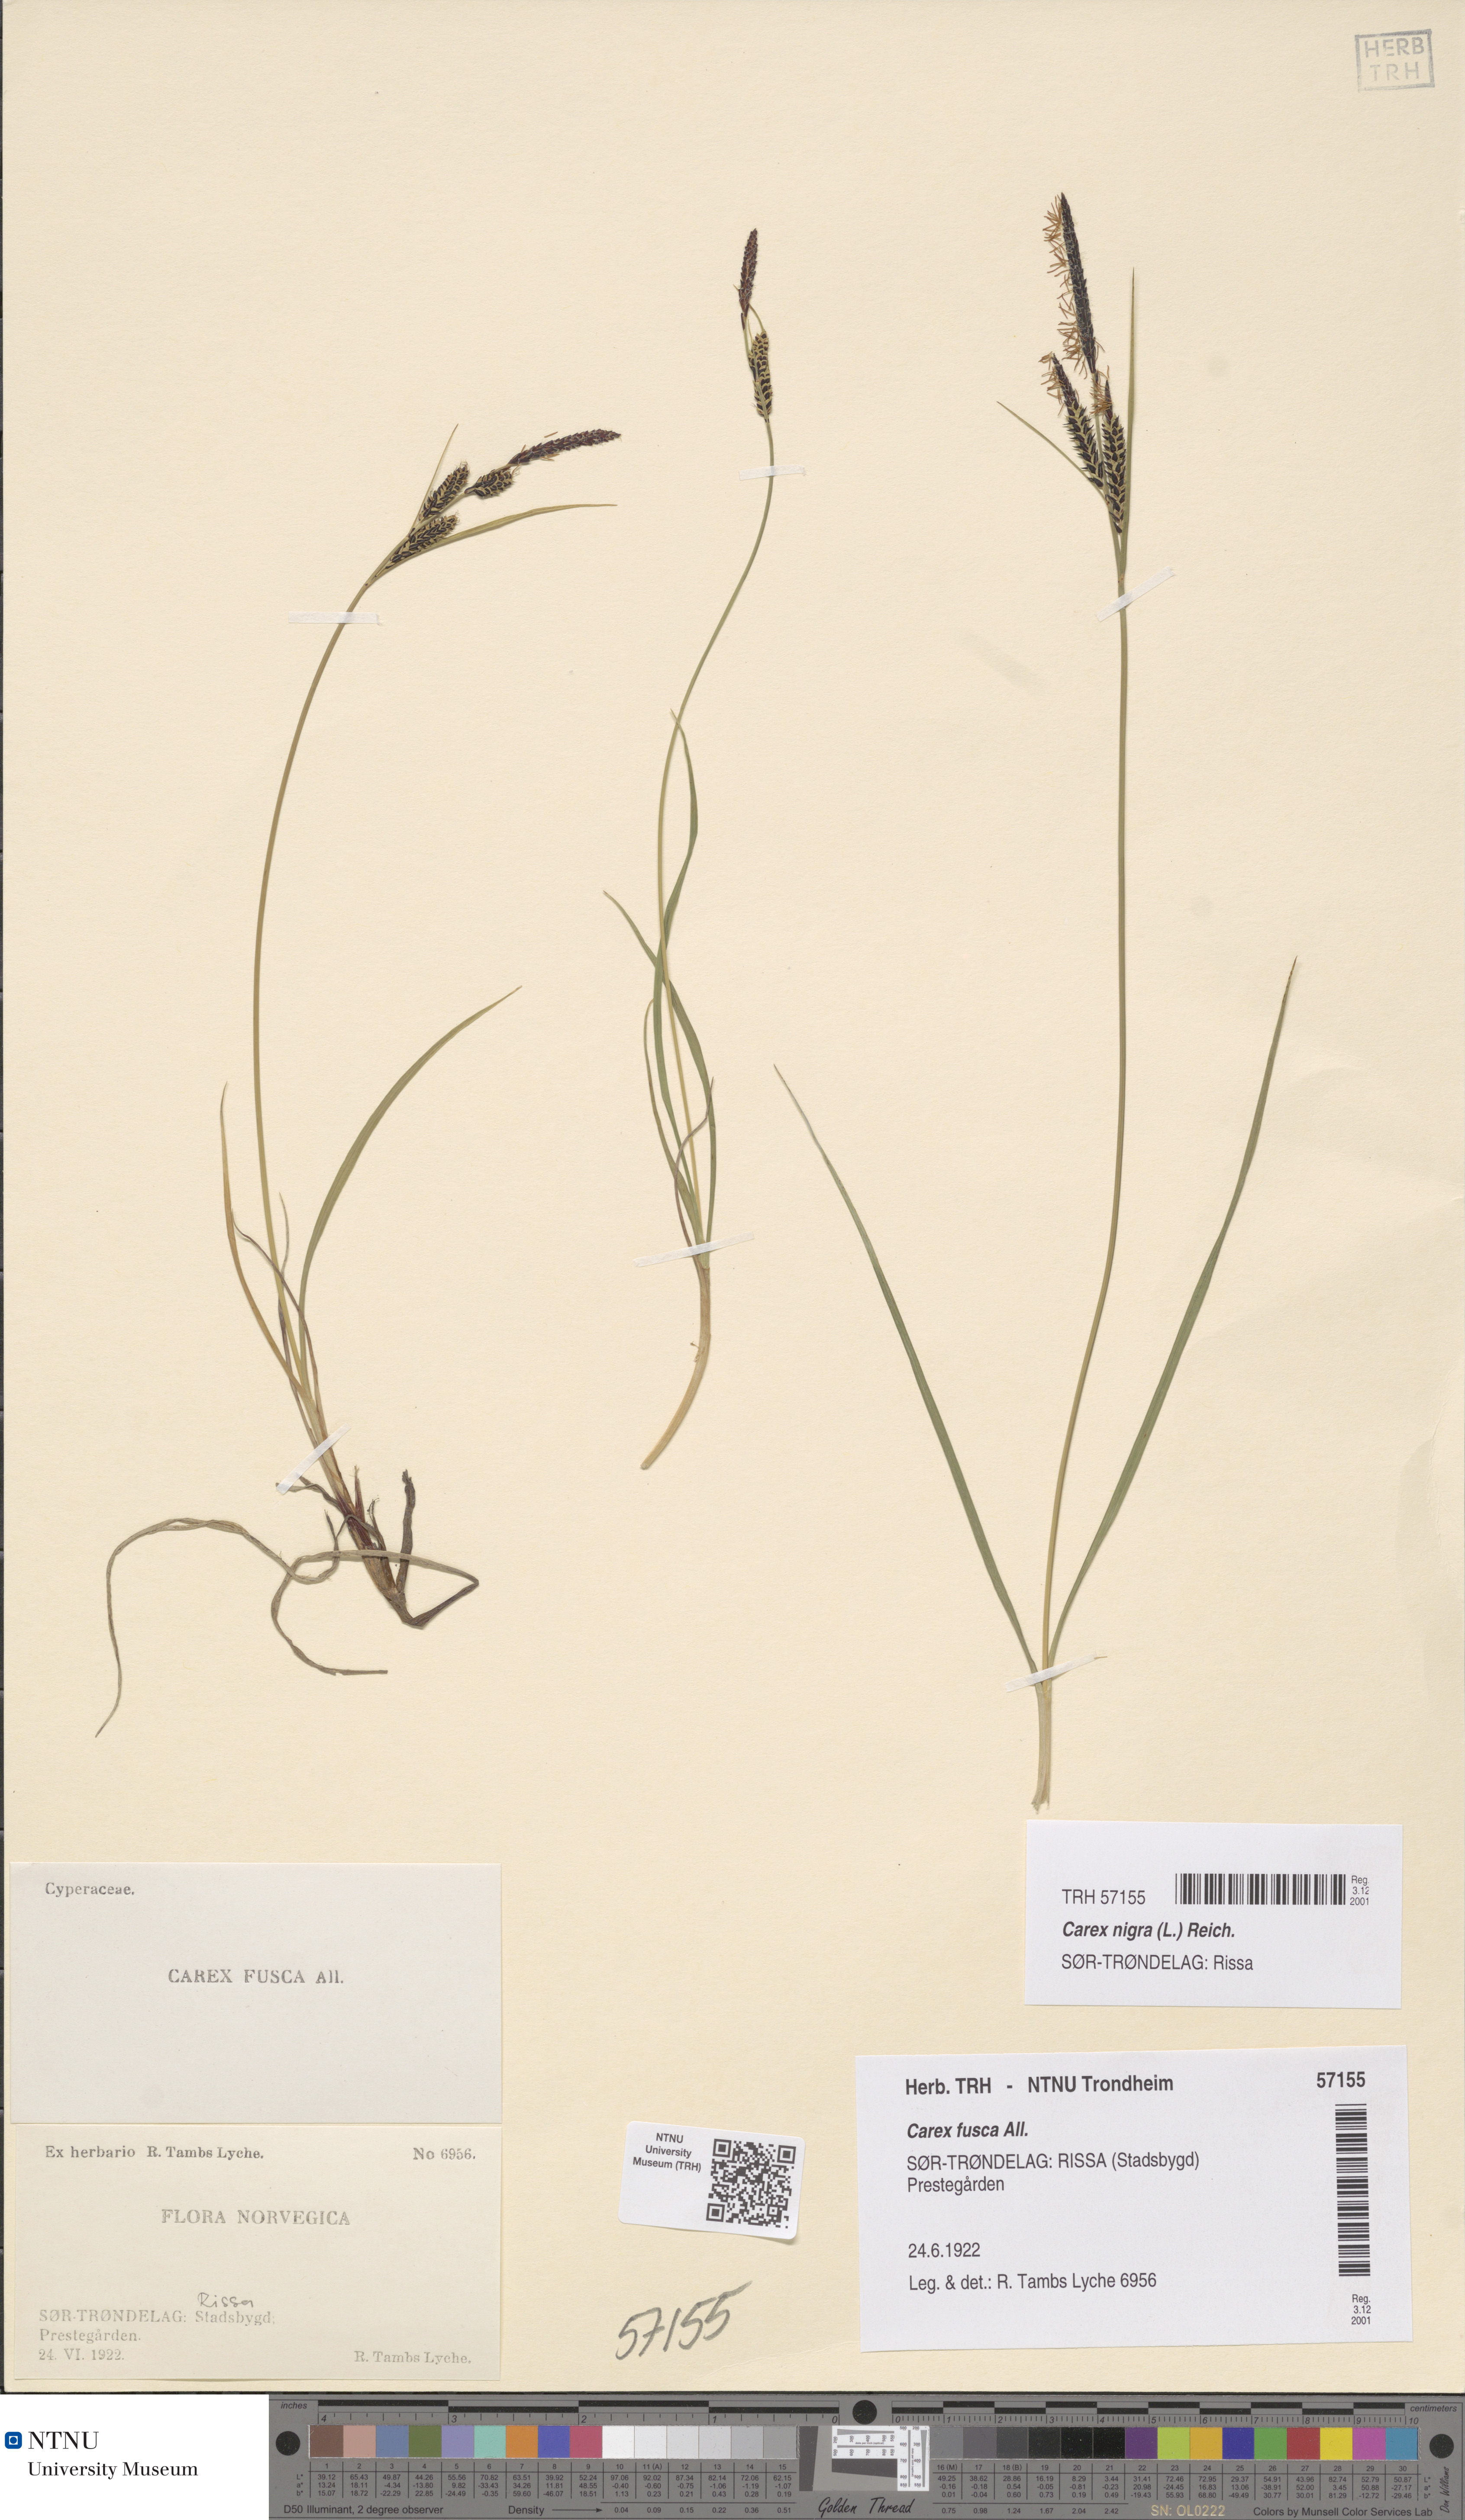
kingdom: Plantae
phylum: Tracheophyta
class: Liliopsida
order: Poales
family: Cyperaceae
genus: Carex
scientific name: Carex nigra
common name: Common sedge
